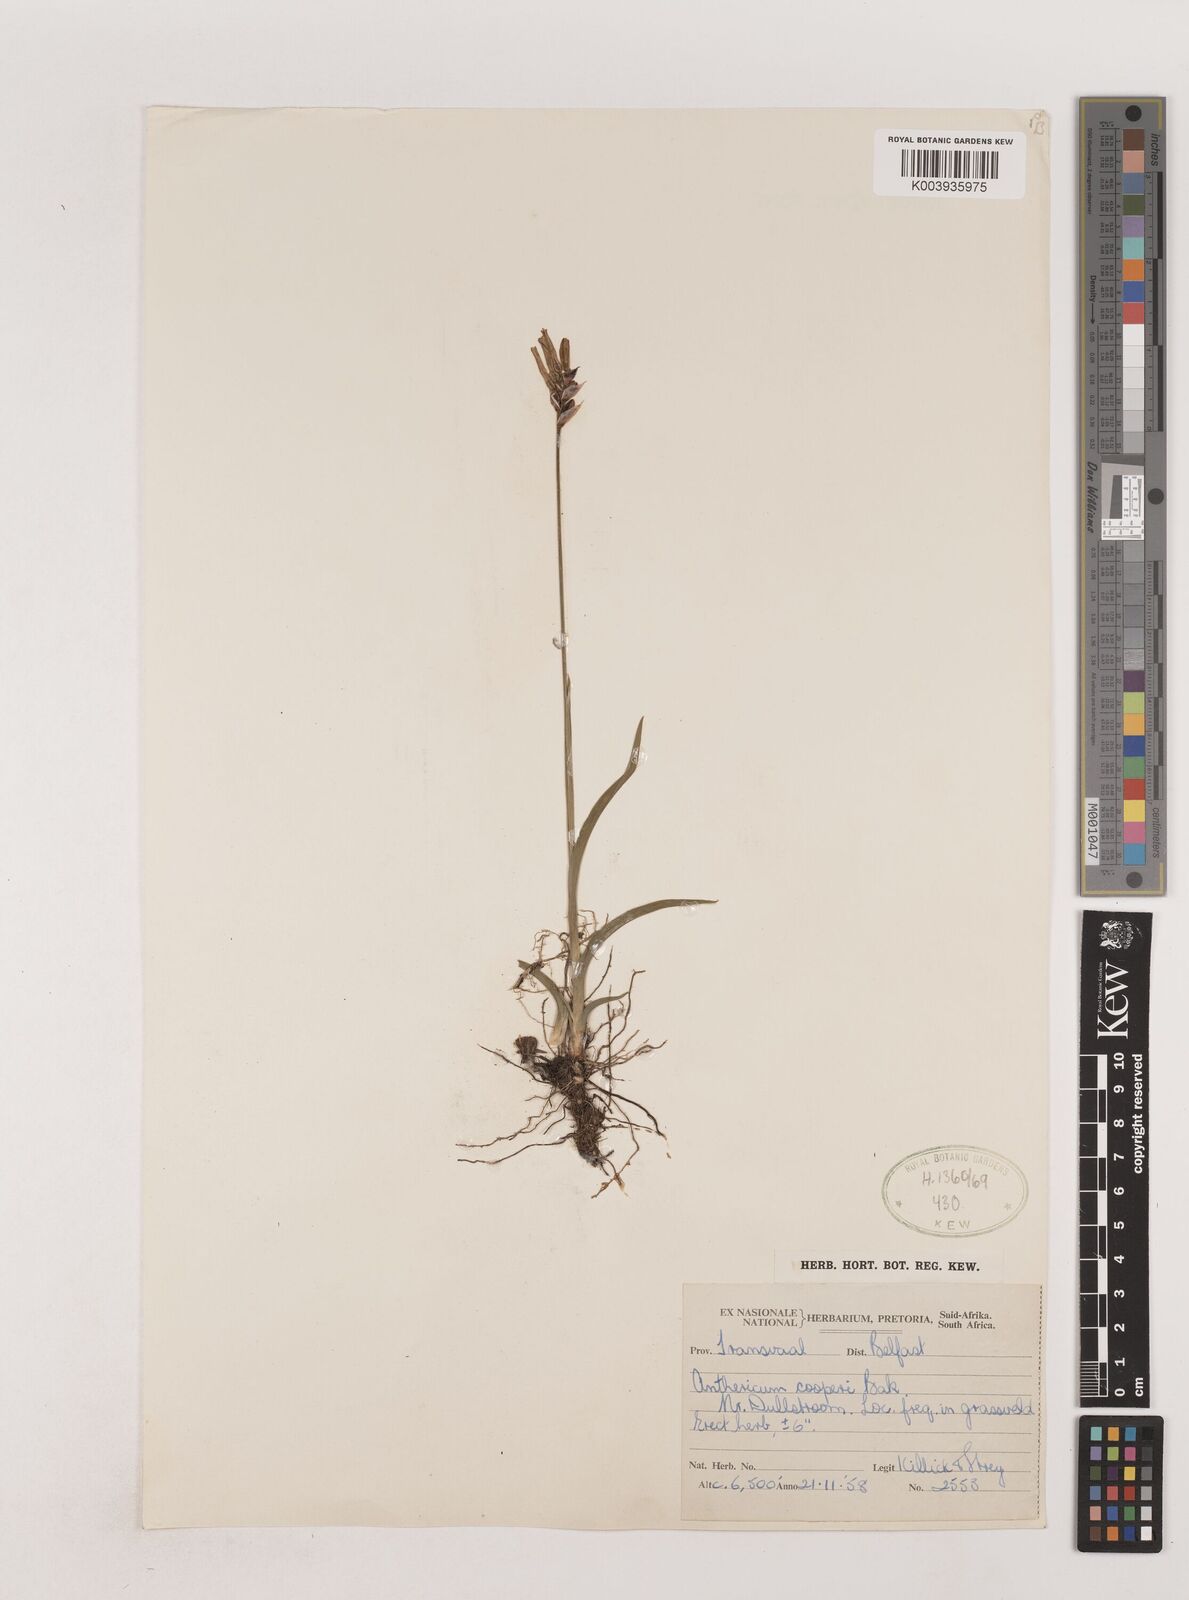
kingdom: Plantae
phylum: Tracheophyta
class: Liliopsida
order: Asparagales
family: Asparagaceae
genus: Chlorophytum
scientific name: Chlorophytum cooperi
